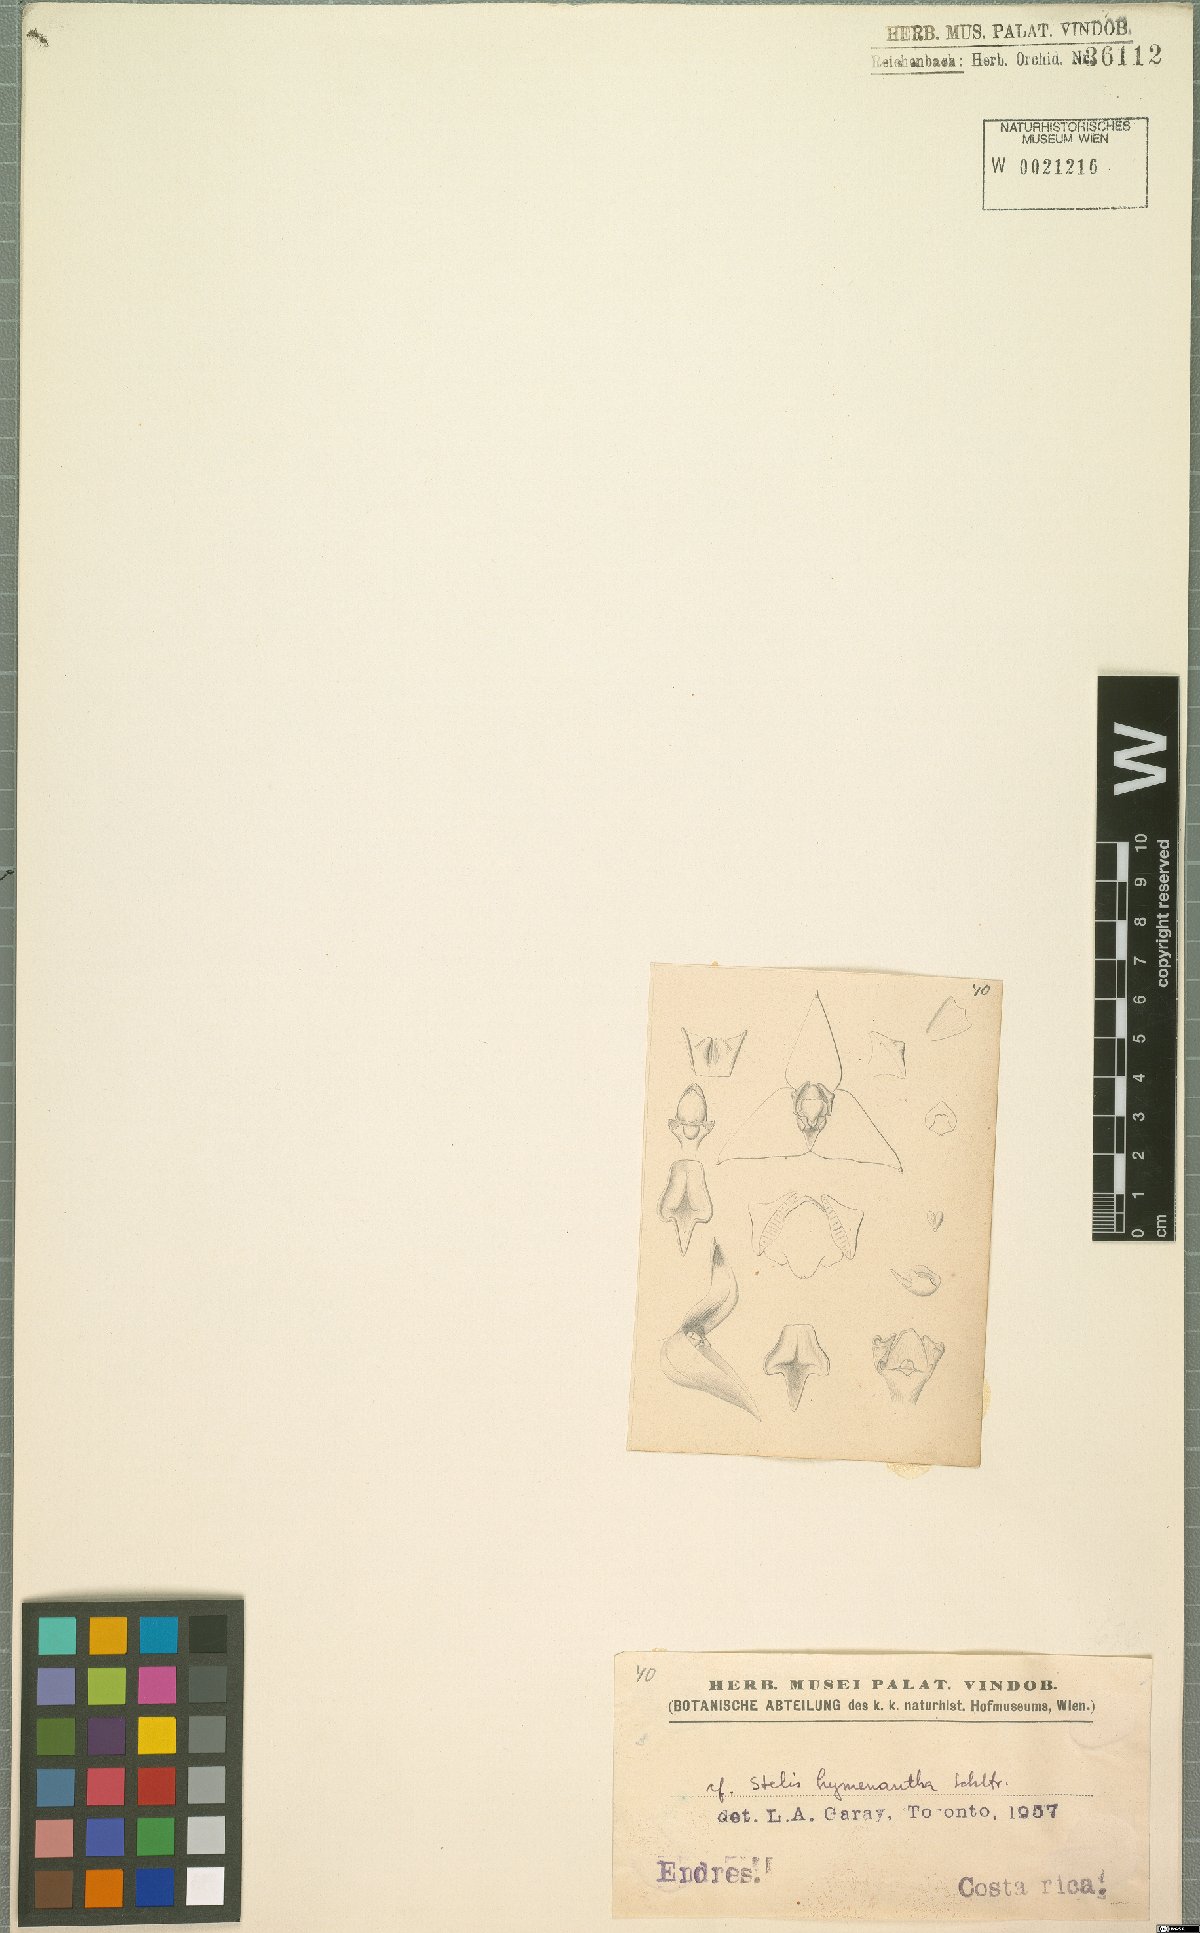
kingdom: Plantae
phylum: Tracheophyta
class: Liliopsida
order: Asparagales
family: Orchidaceae
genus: Stelis
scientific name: Stelis hymenantha
